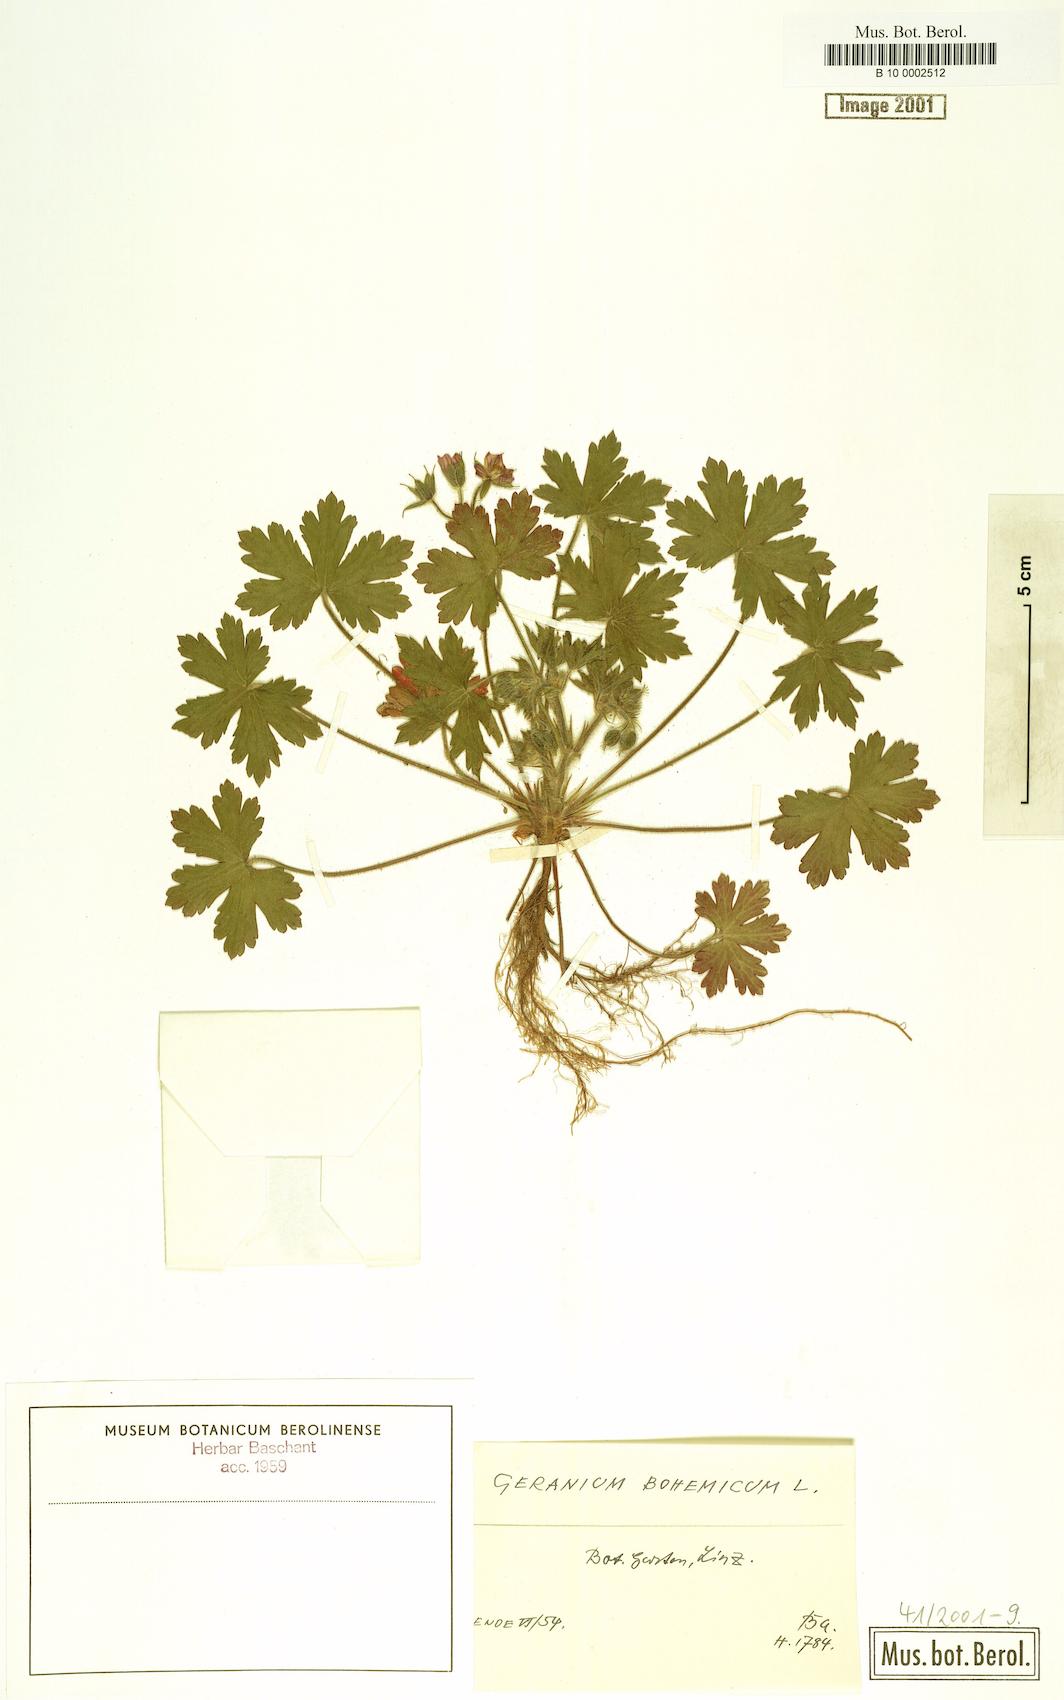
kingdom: Plantae
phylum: Tracheophyta
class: Magnoliopsida
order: Geraniales
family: Geraniaceae
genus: Geranium
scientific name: Geranium bohemicum
